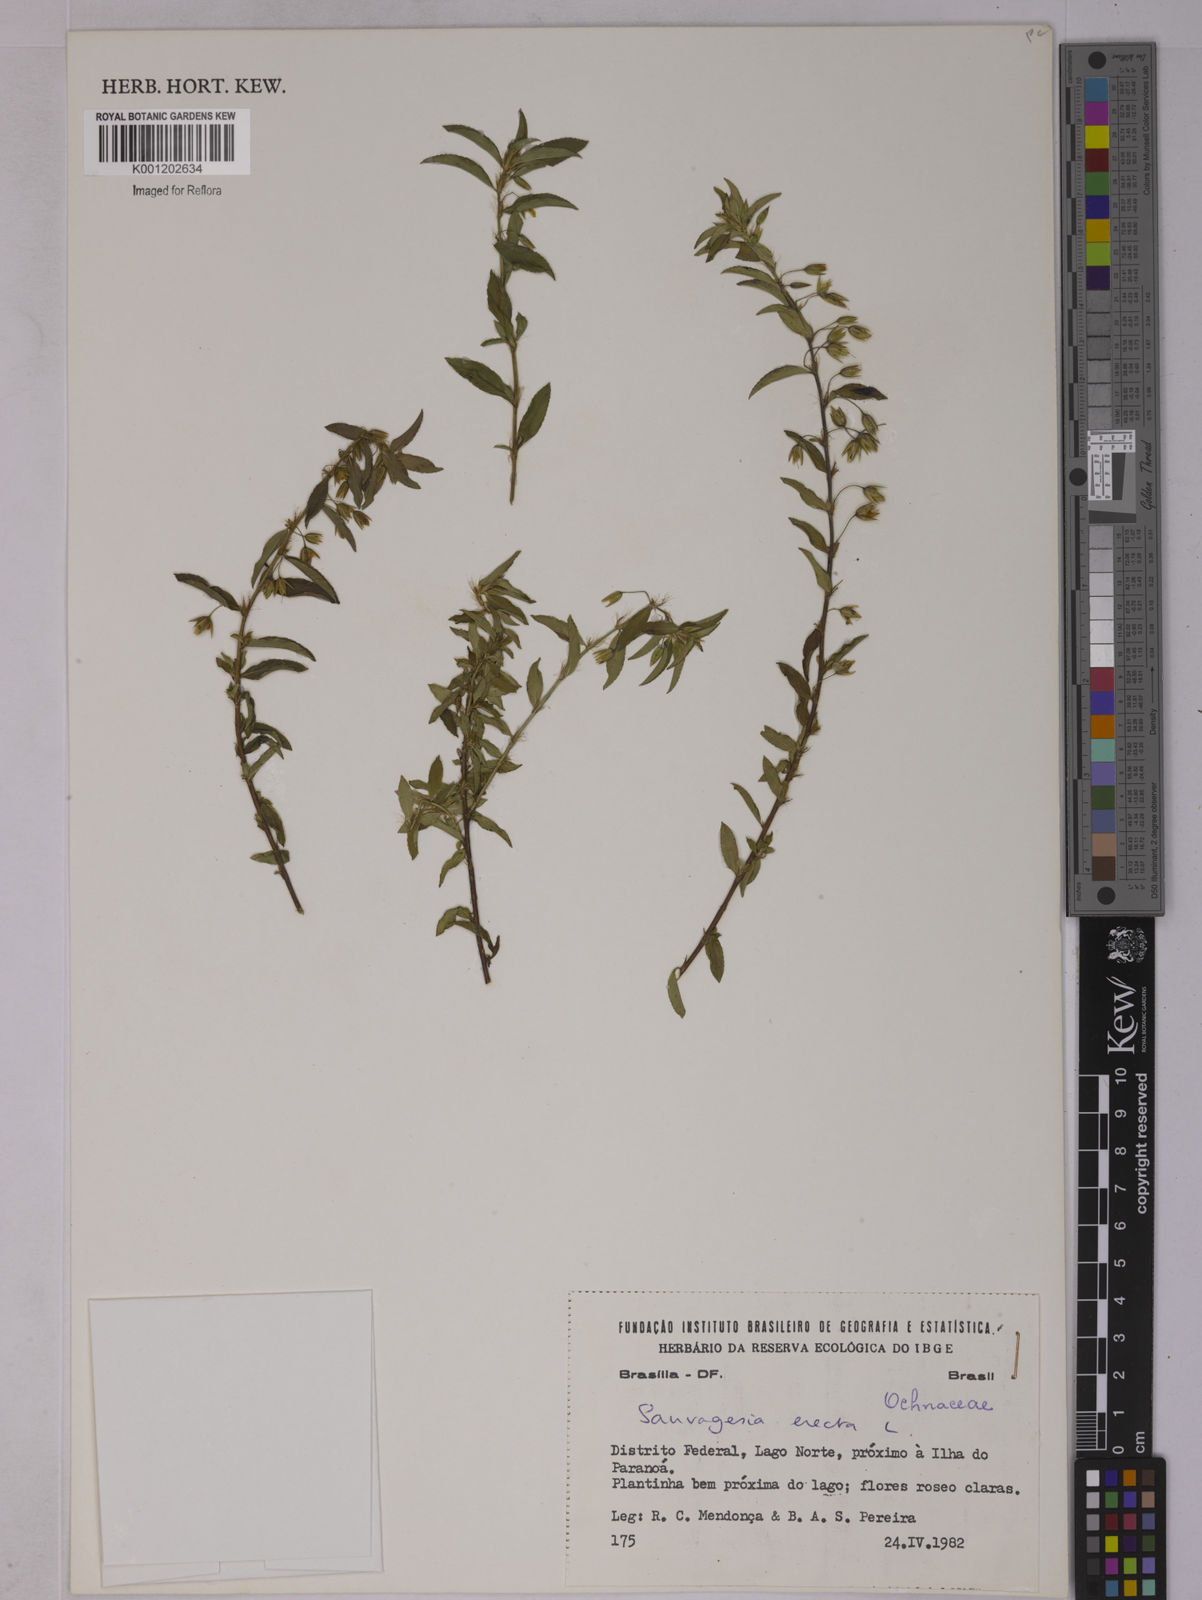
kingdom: Plantae
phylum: Tracheophyta
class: Magnoliopsida
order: Malpighiales
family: Ochnaceae
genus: Sauvagesia
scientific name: Sauvagesia erecta
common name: Creole tea
